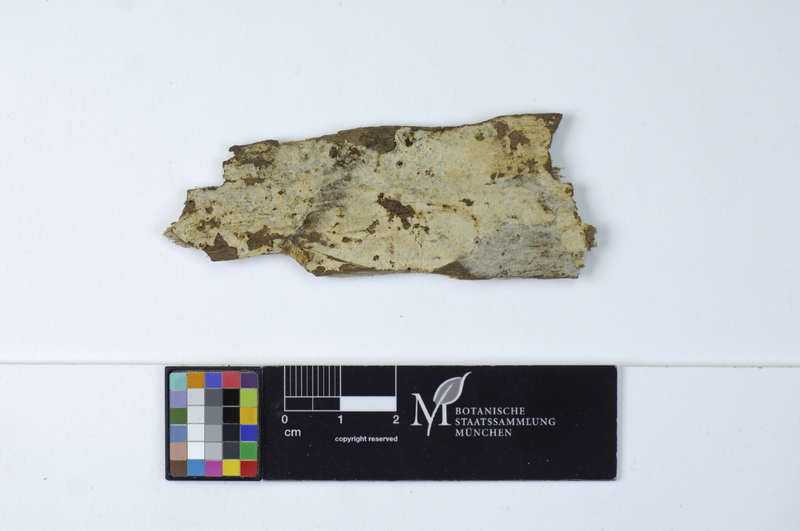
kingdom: Fungi
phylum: Basidiomycota
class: Agaricomycetes
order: Cantharellales
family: Botryobasidiaceae
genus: Botryobasidium
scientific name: Botryobasidium subcoronatum
